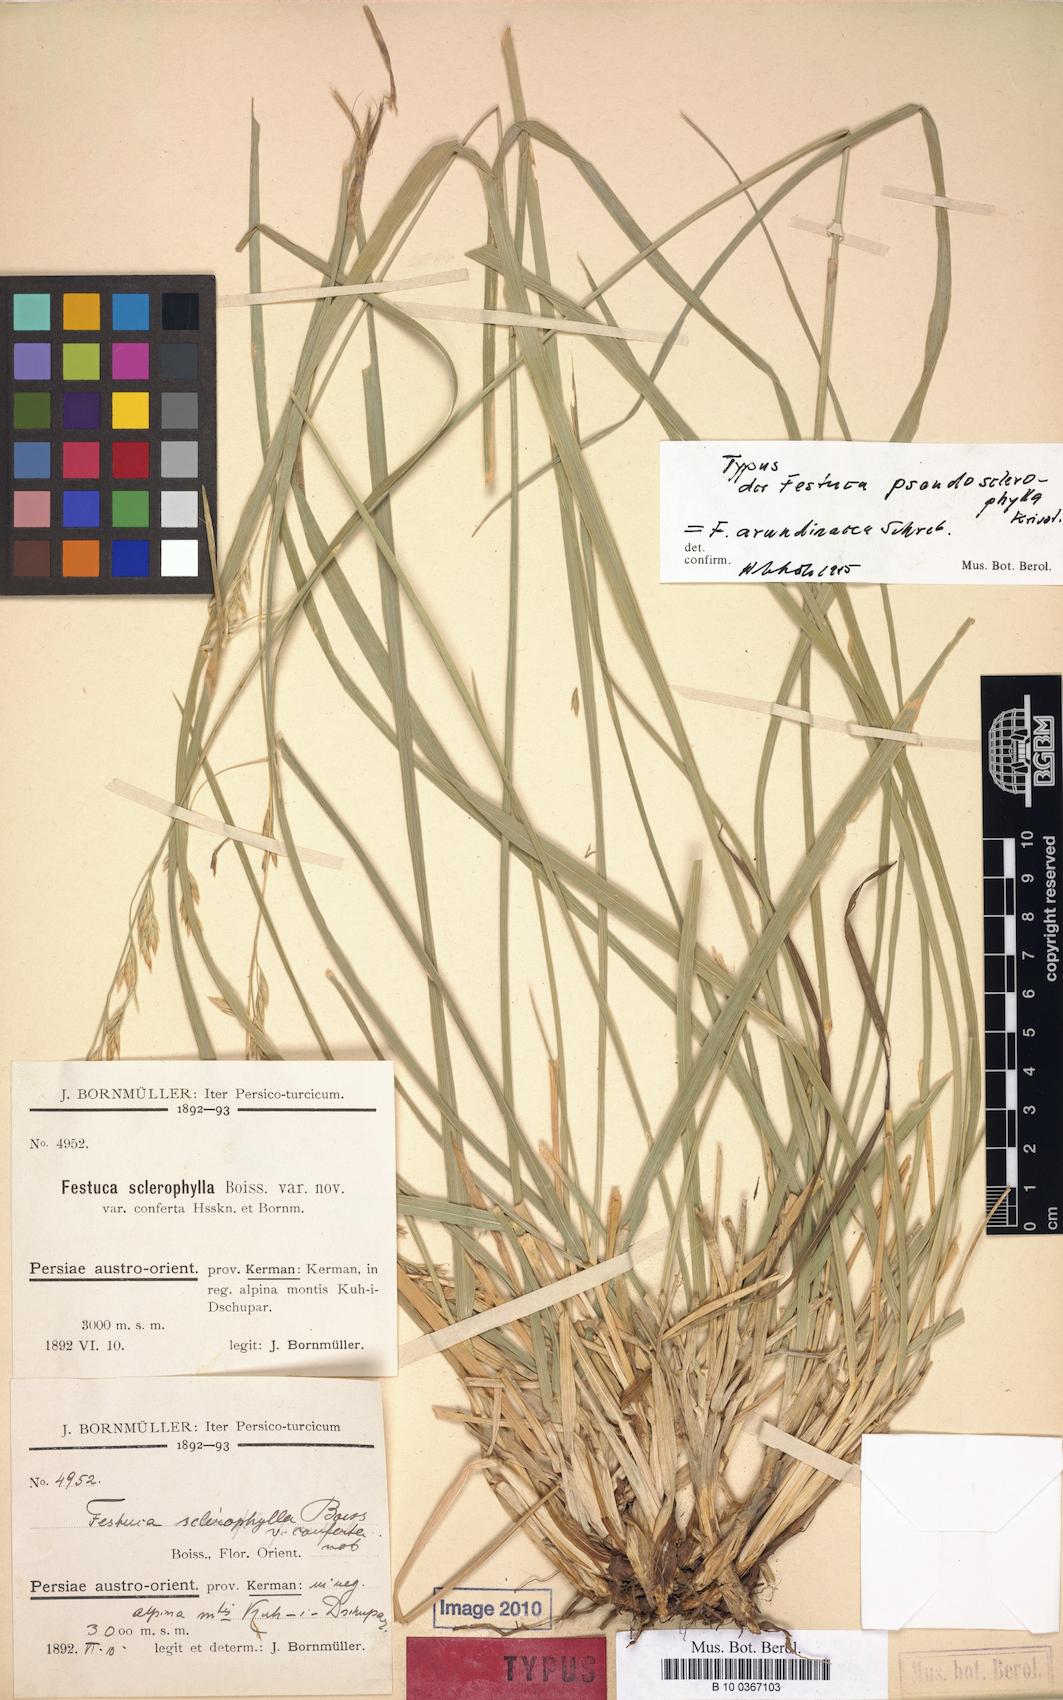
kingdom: Plantae
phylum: Tracheophyta
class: Liliopsida
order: Poales
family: Poaceae
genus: Festuca
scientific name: Festuca pseudosclerophylla
